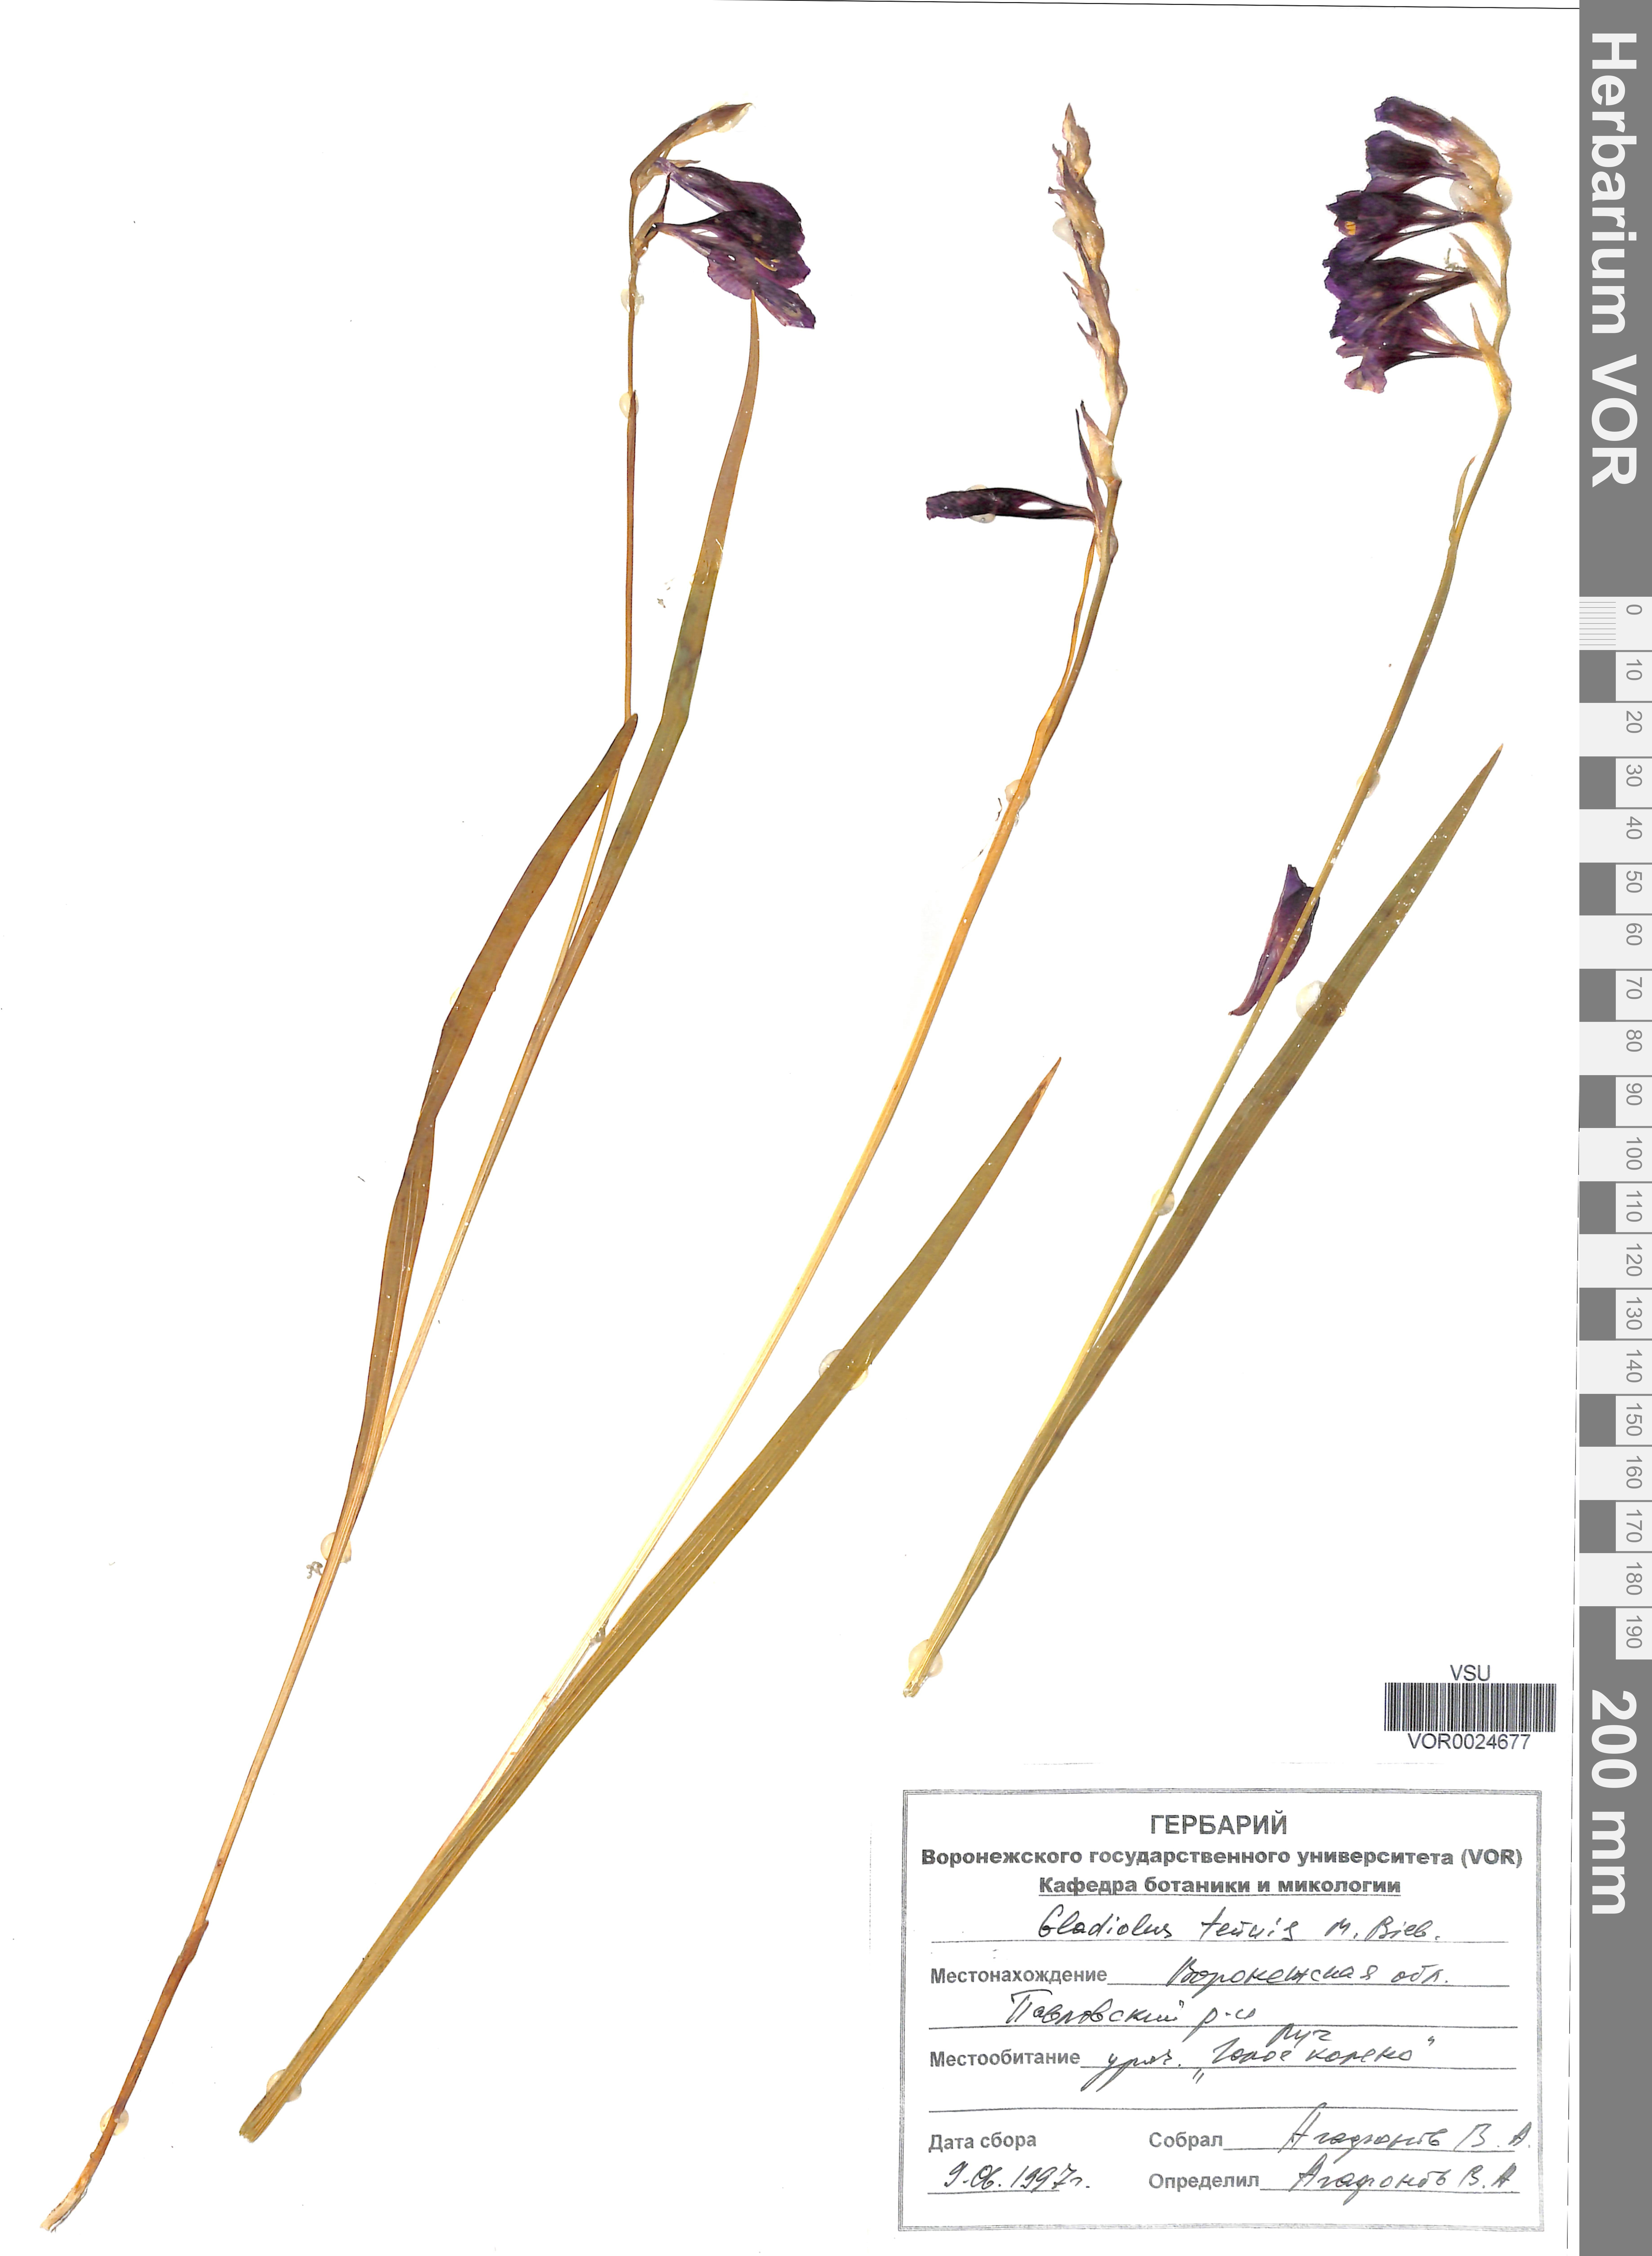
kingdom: Plantae
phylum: Tracheophyta
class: Liliopsida
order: Asparagales
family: Iridaceae
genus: Gladiolus
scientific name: Gladiolus tenuis
